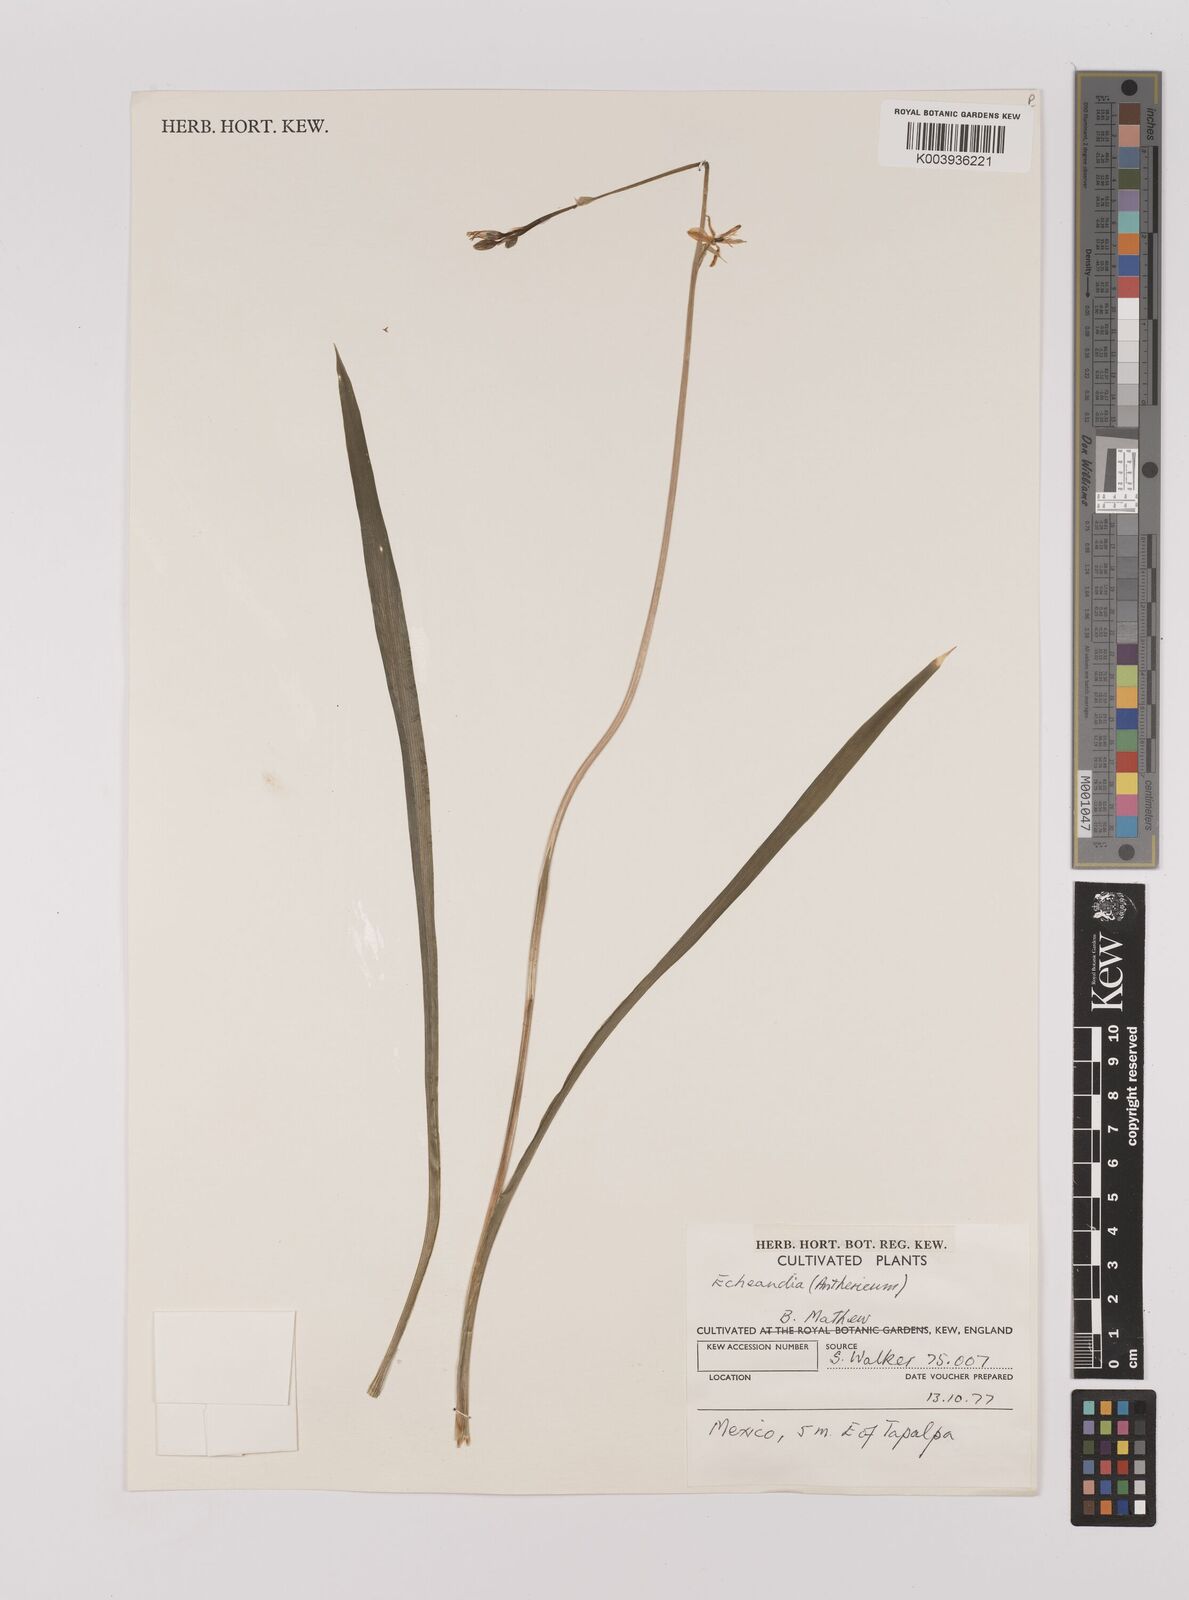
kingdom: Plantae
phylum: Tracheophyta
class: Liliopsida
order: Asparagales
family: Asparagaceae
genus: Echeandia
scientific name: Echeandia
